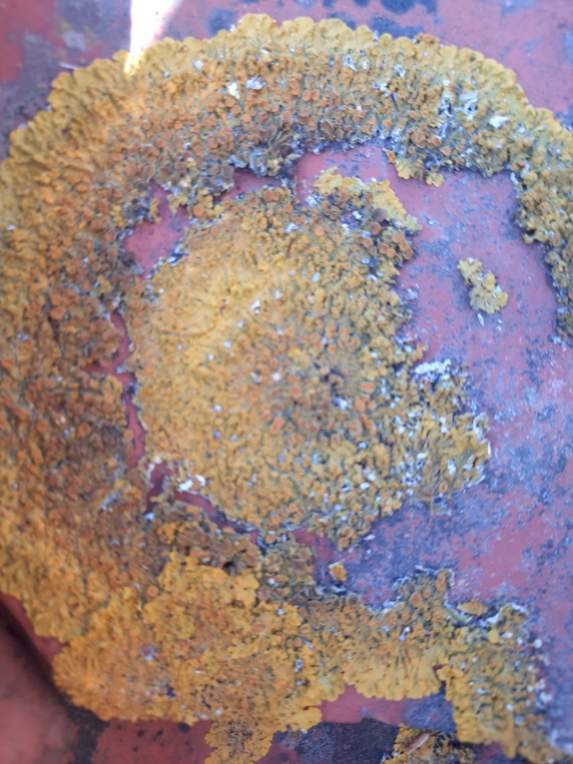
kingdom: Fungi
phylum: Ascomycota
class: Lecanoromycetes
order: Teloschistales
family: Teloschistaceae
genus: Xanthoria
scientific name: Xanthoria parietina
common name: Almindelig væggelav
